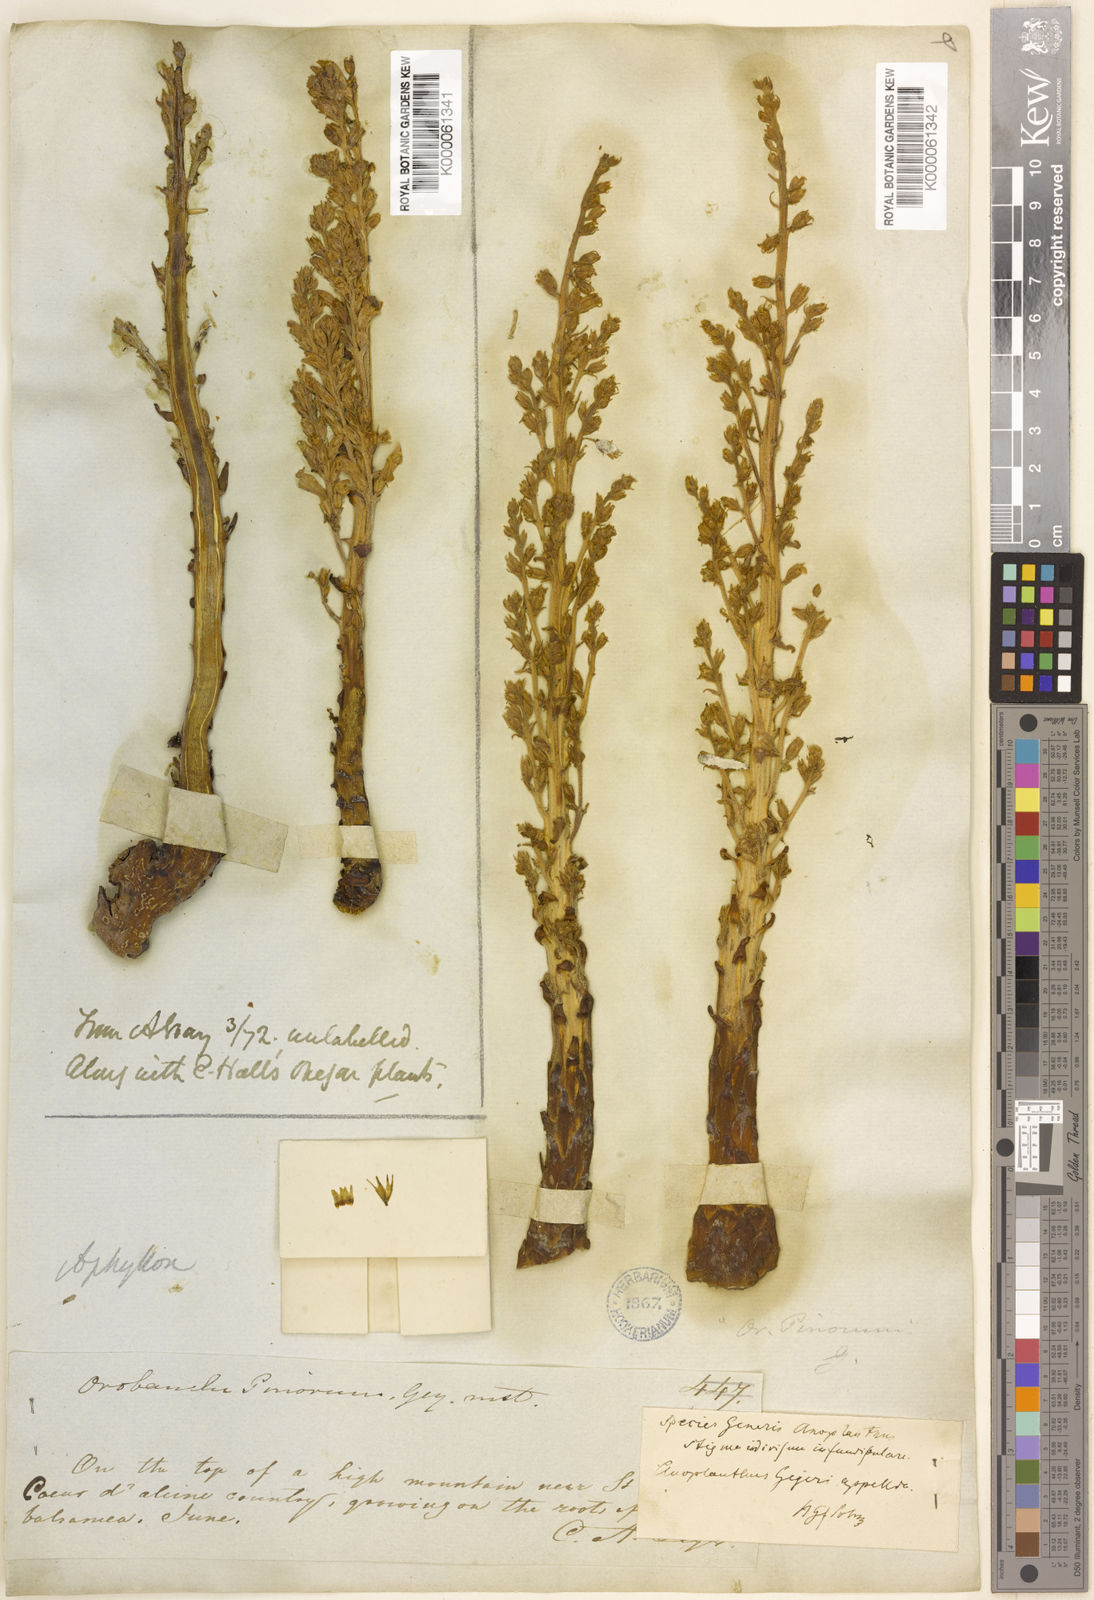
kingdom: Plantae
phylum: Tracheophyta
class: Magnoliopsida
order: Lamiales
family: Orobanchaceae
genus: Aphyllon
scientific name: Aphyllon tuberosum
